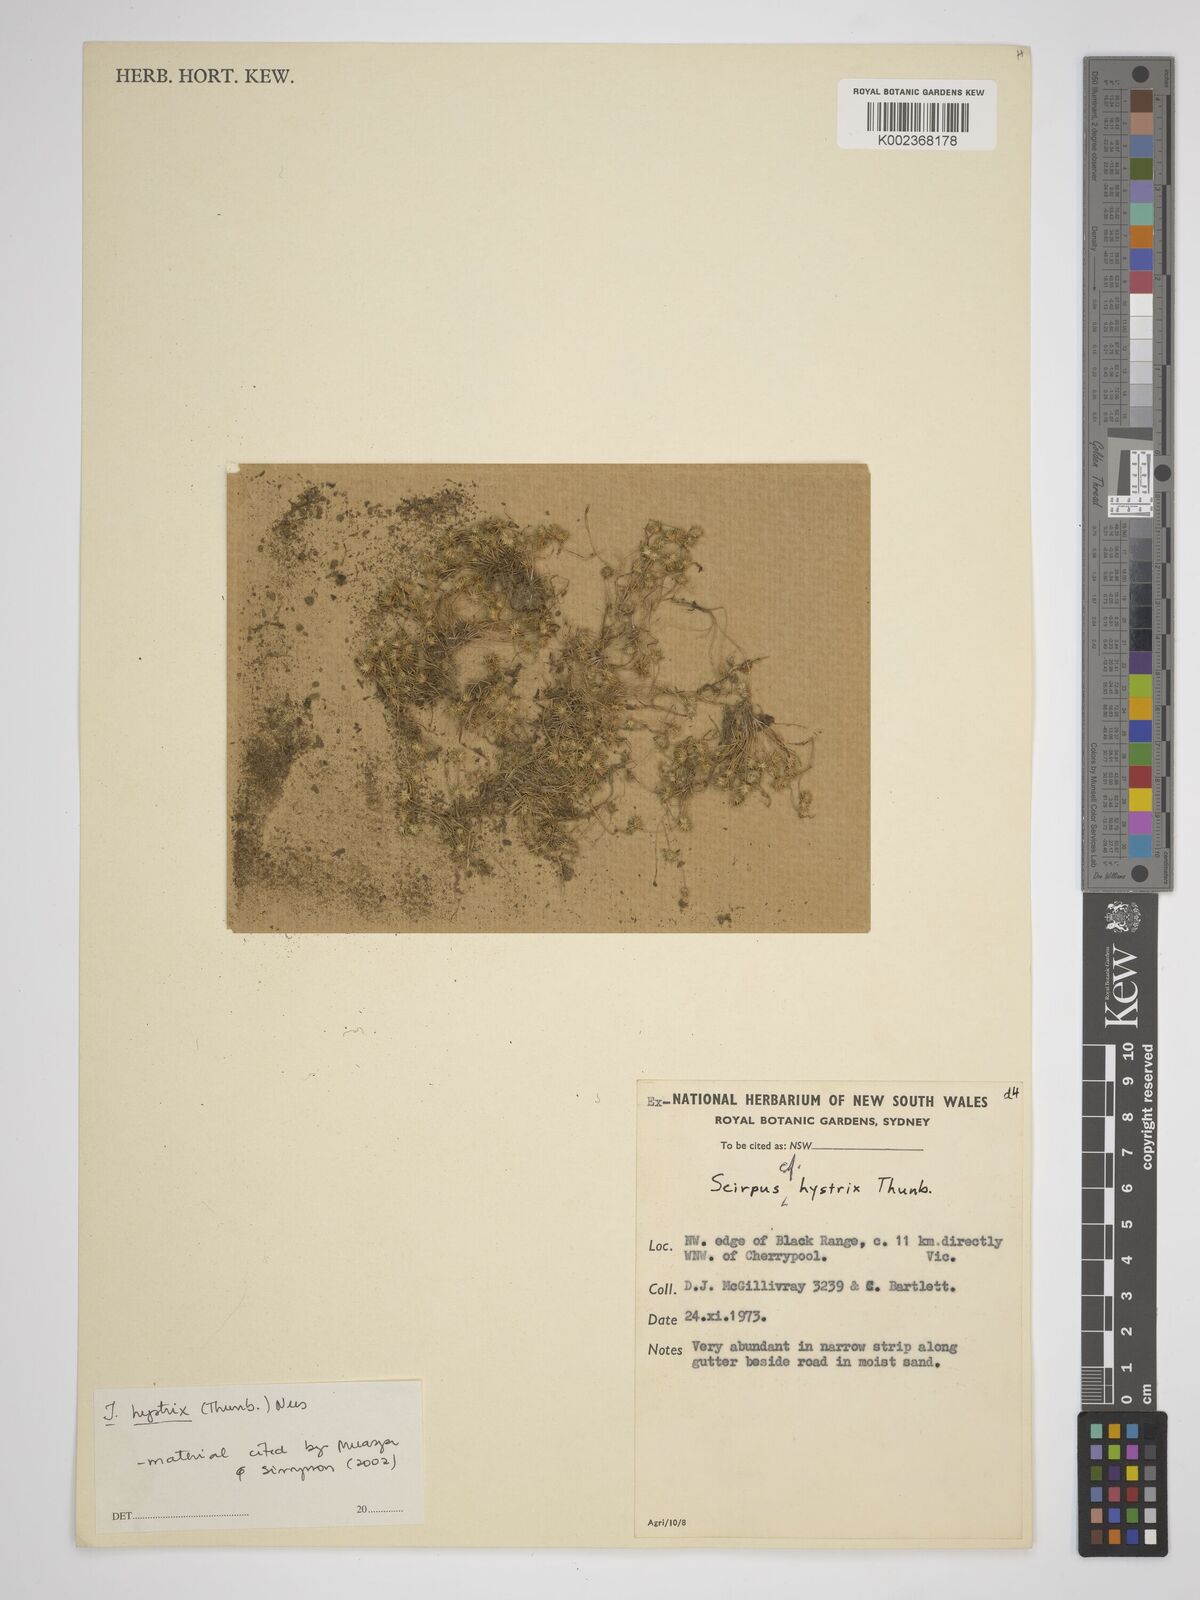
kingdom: Plantae
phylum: Tracheophyta
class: Liliopsida
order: Poales
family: Cyperaceae
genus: Isolepis
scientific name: Isolepis hystrix
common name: Bottlebrush bulrush
